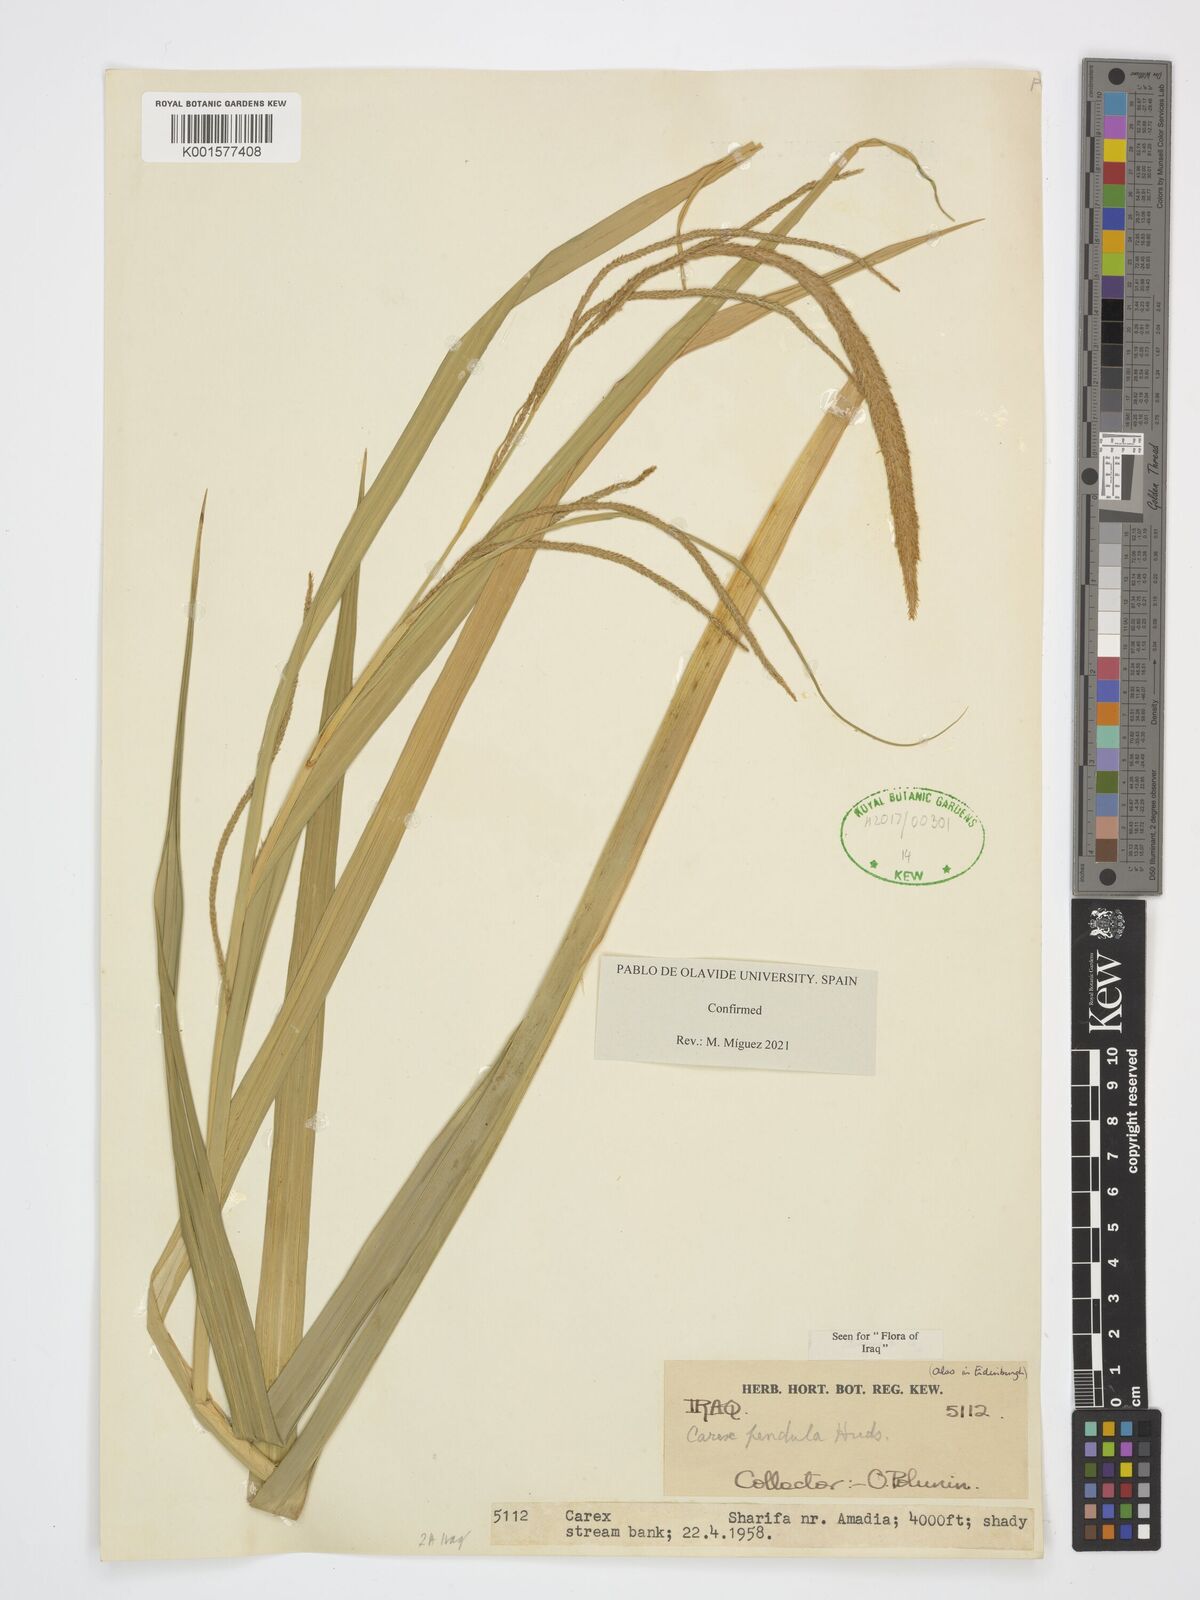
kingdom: Plantae
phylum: Tracheophyta
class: Liliopsida
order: Poales
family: Cyperaceae
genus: Carex
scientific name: Carex pendula
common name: Pendulous sedge
